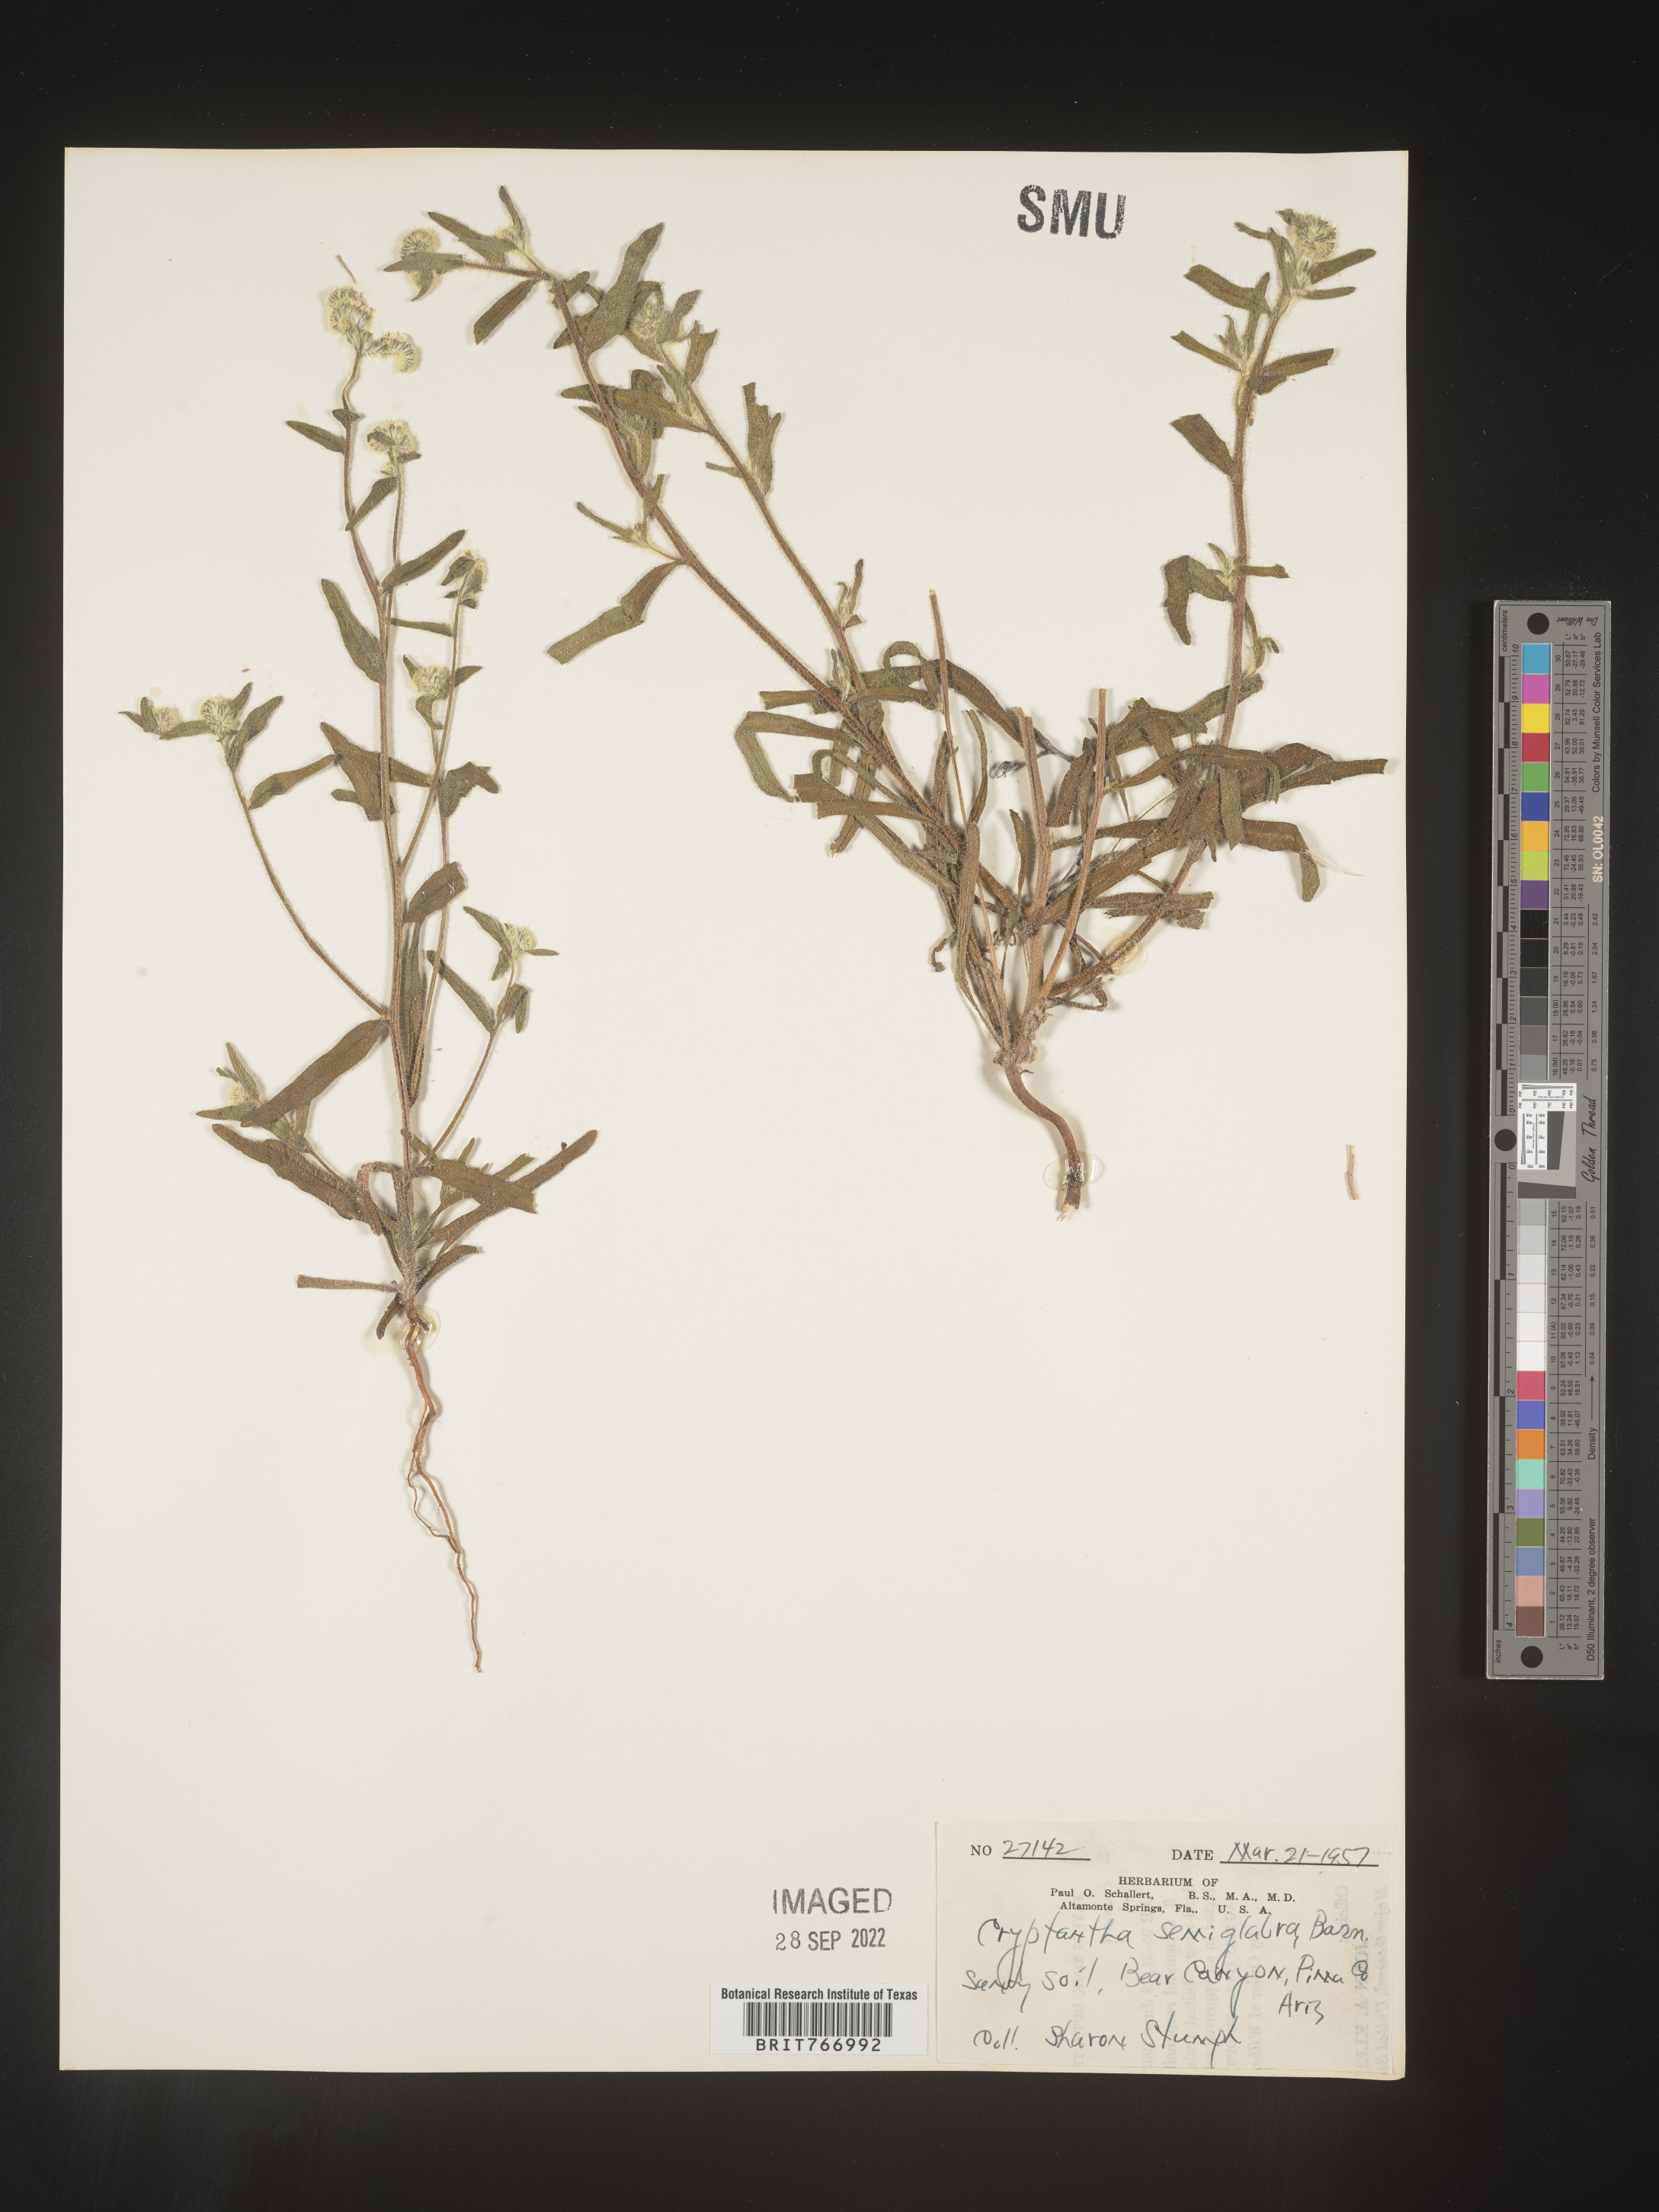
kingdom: Plantae
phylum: Tracheophyta
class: Magnoliopsida
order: Boraginales
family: Boraginaceae
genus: Cryptantha
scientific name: Cryptantha
